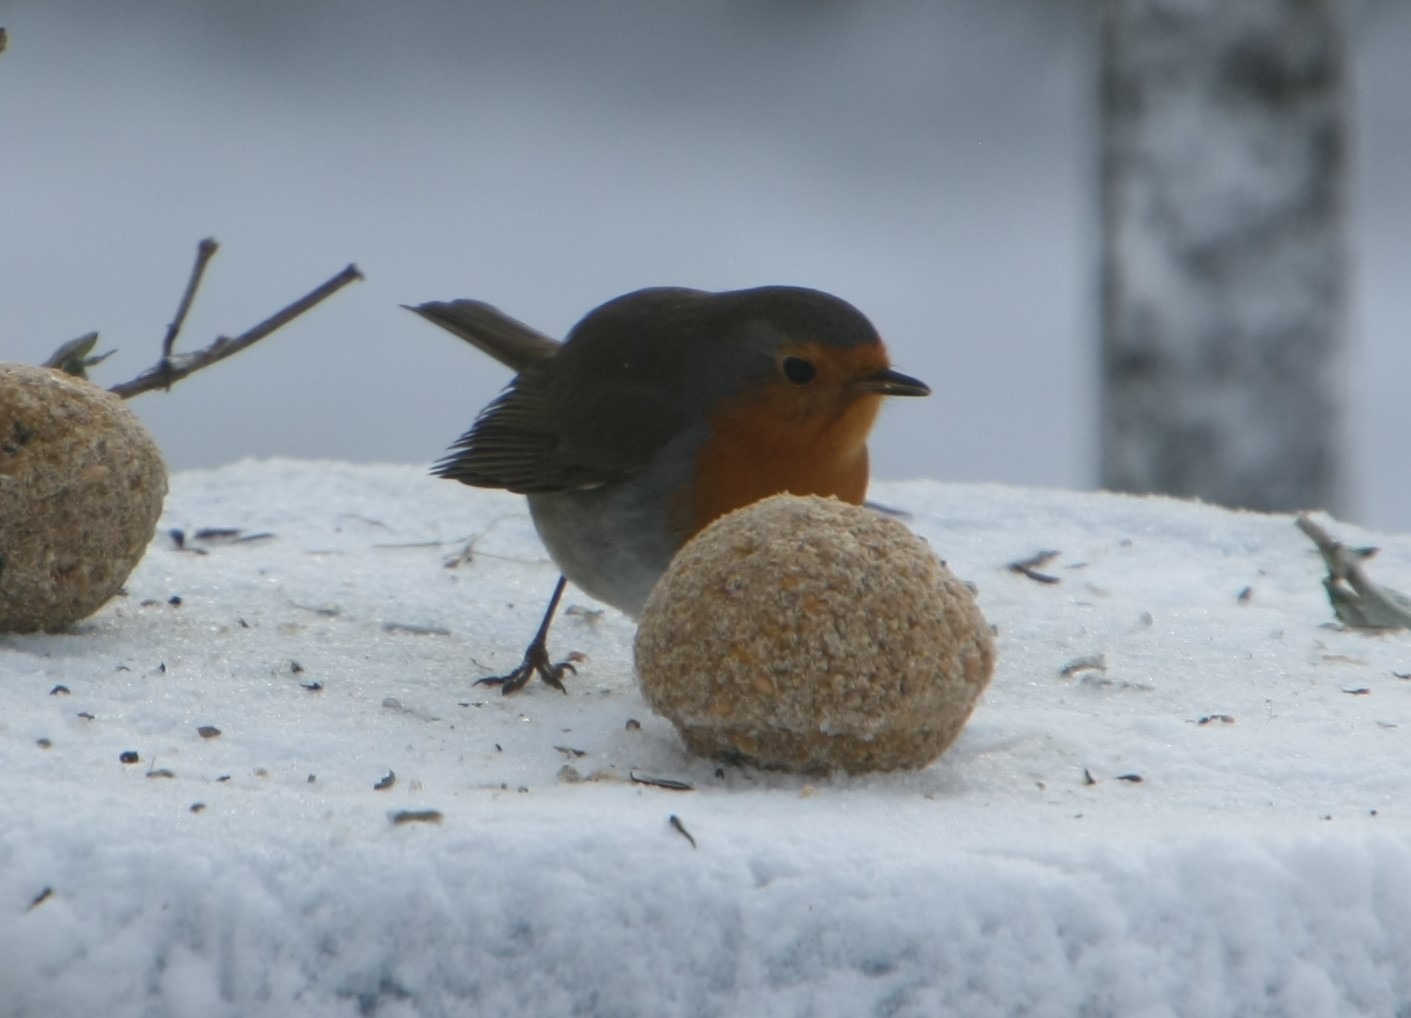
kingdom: Animalia
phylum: Chordata
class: Aves
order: Passeriformes
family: Muscicapidae
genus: Erithacus
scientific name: Erithacus rubecula
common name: Rødhals/rødkælk
